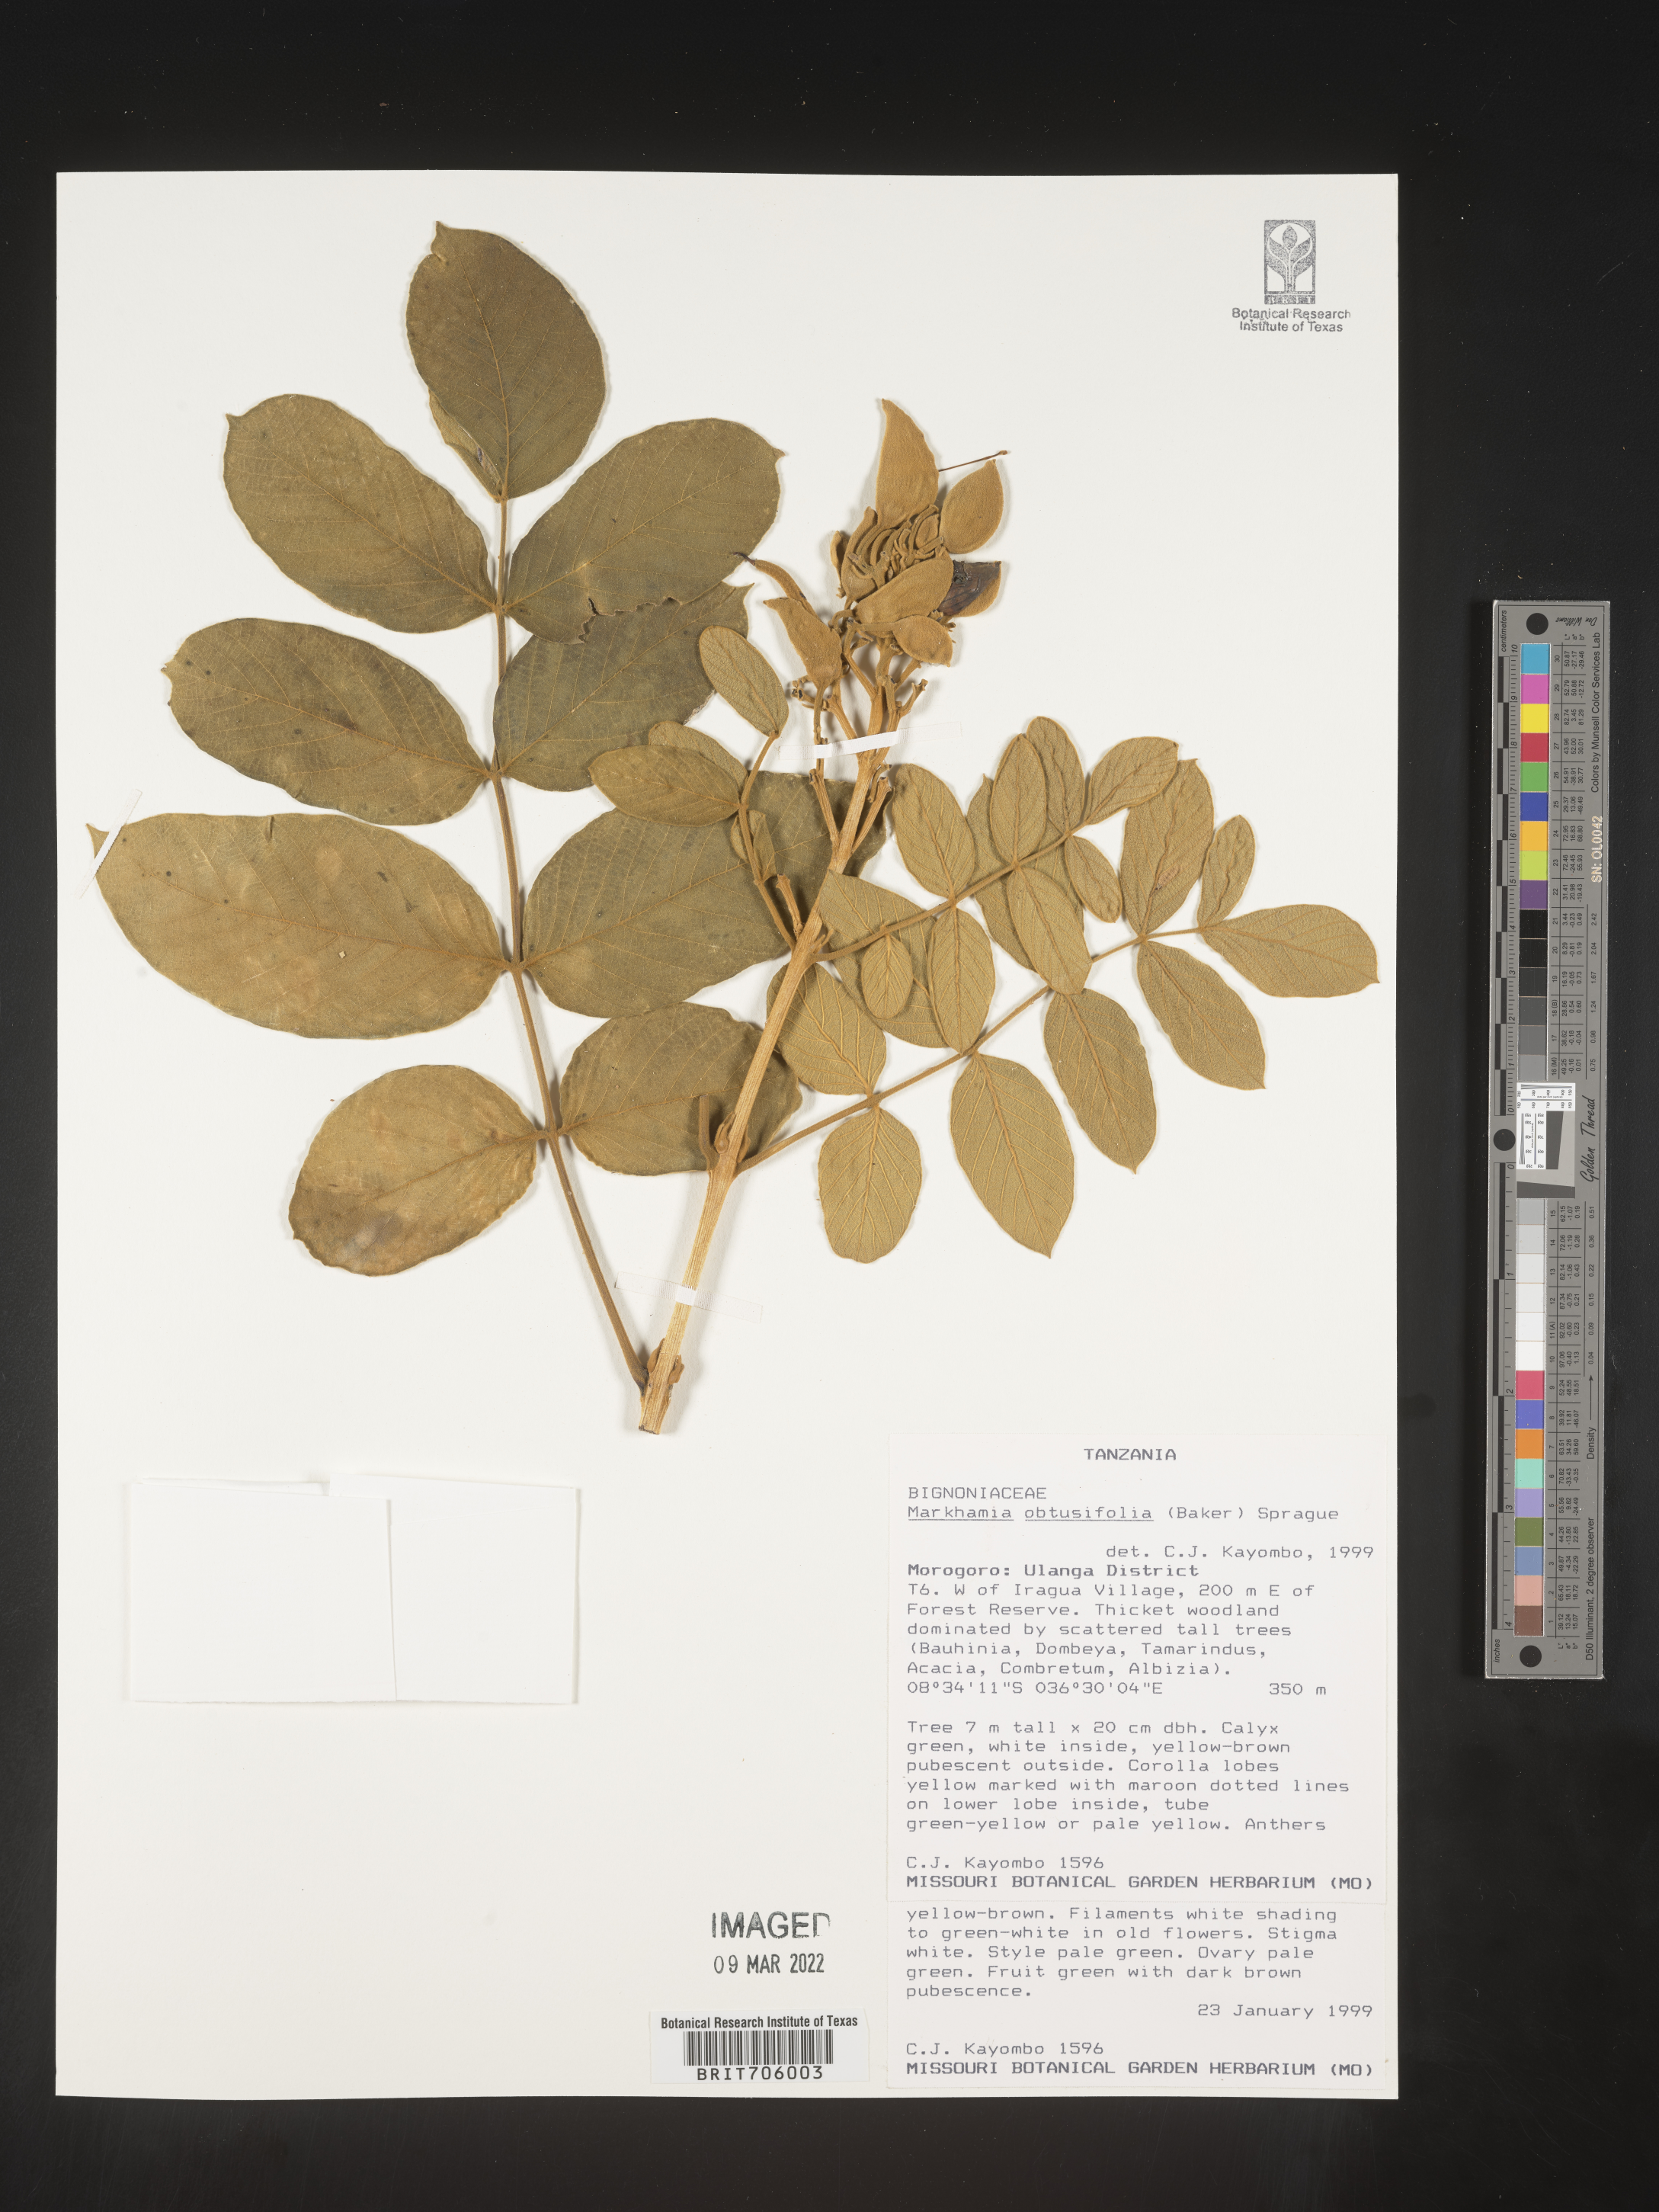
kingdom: Plantae
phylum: Tracheophyta
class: Magnoliopsida
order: Lamiales
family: Bignoniaceae
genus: Markhamia
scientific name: Markhamia
